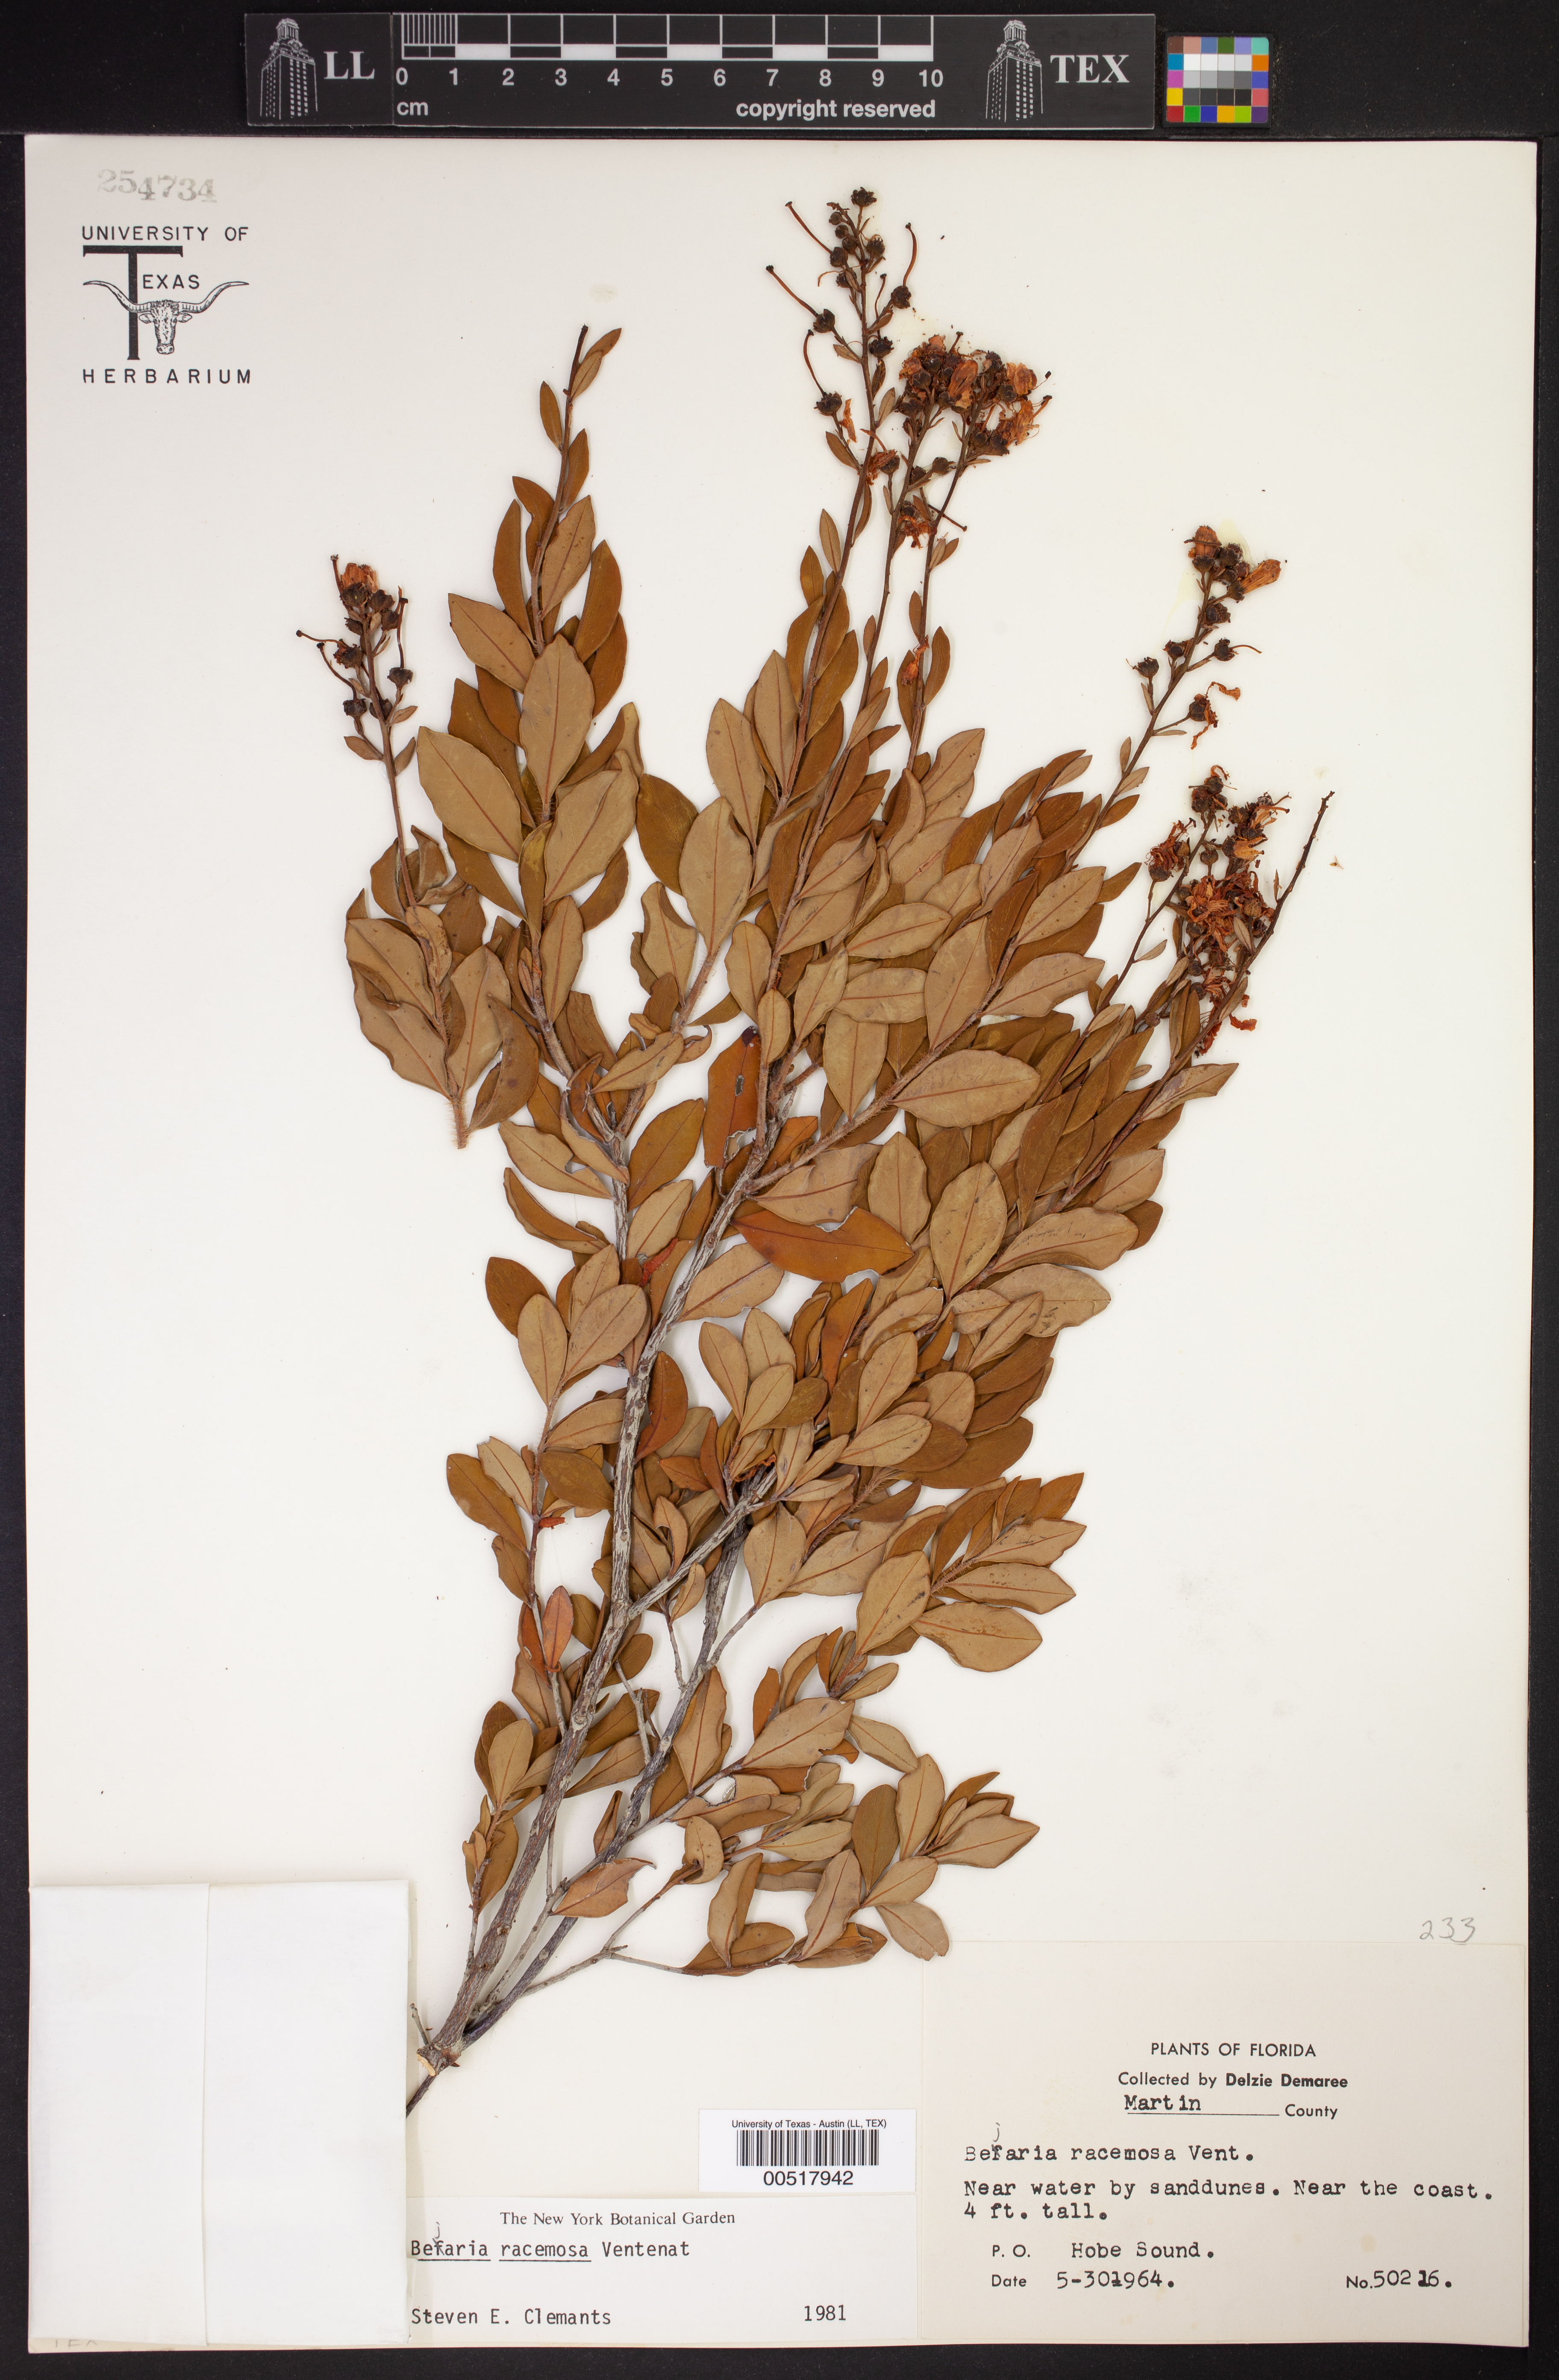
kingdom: Plantae
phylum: Tracheophyta
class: Magnoliopsida
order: Ericales
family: Ericaceae
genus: Bejaria
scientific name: Bejaria racemosa
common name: Tarflower
